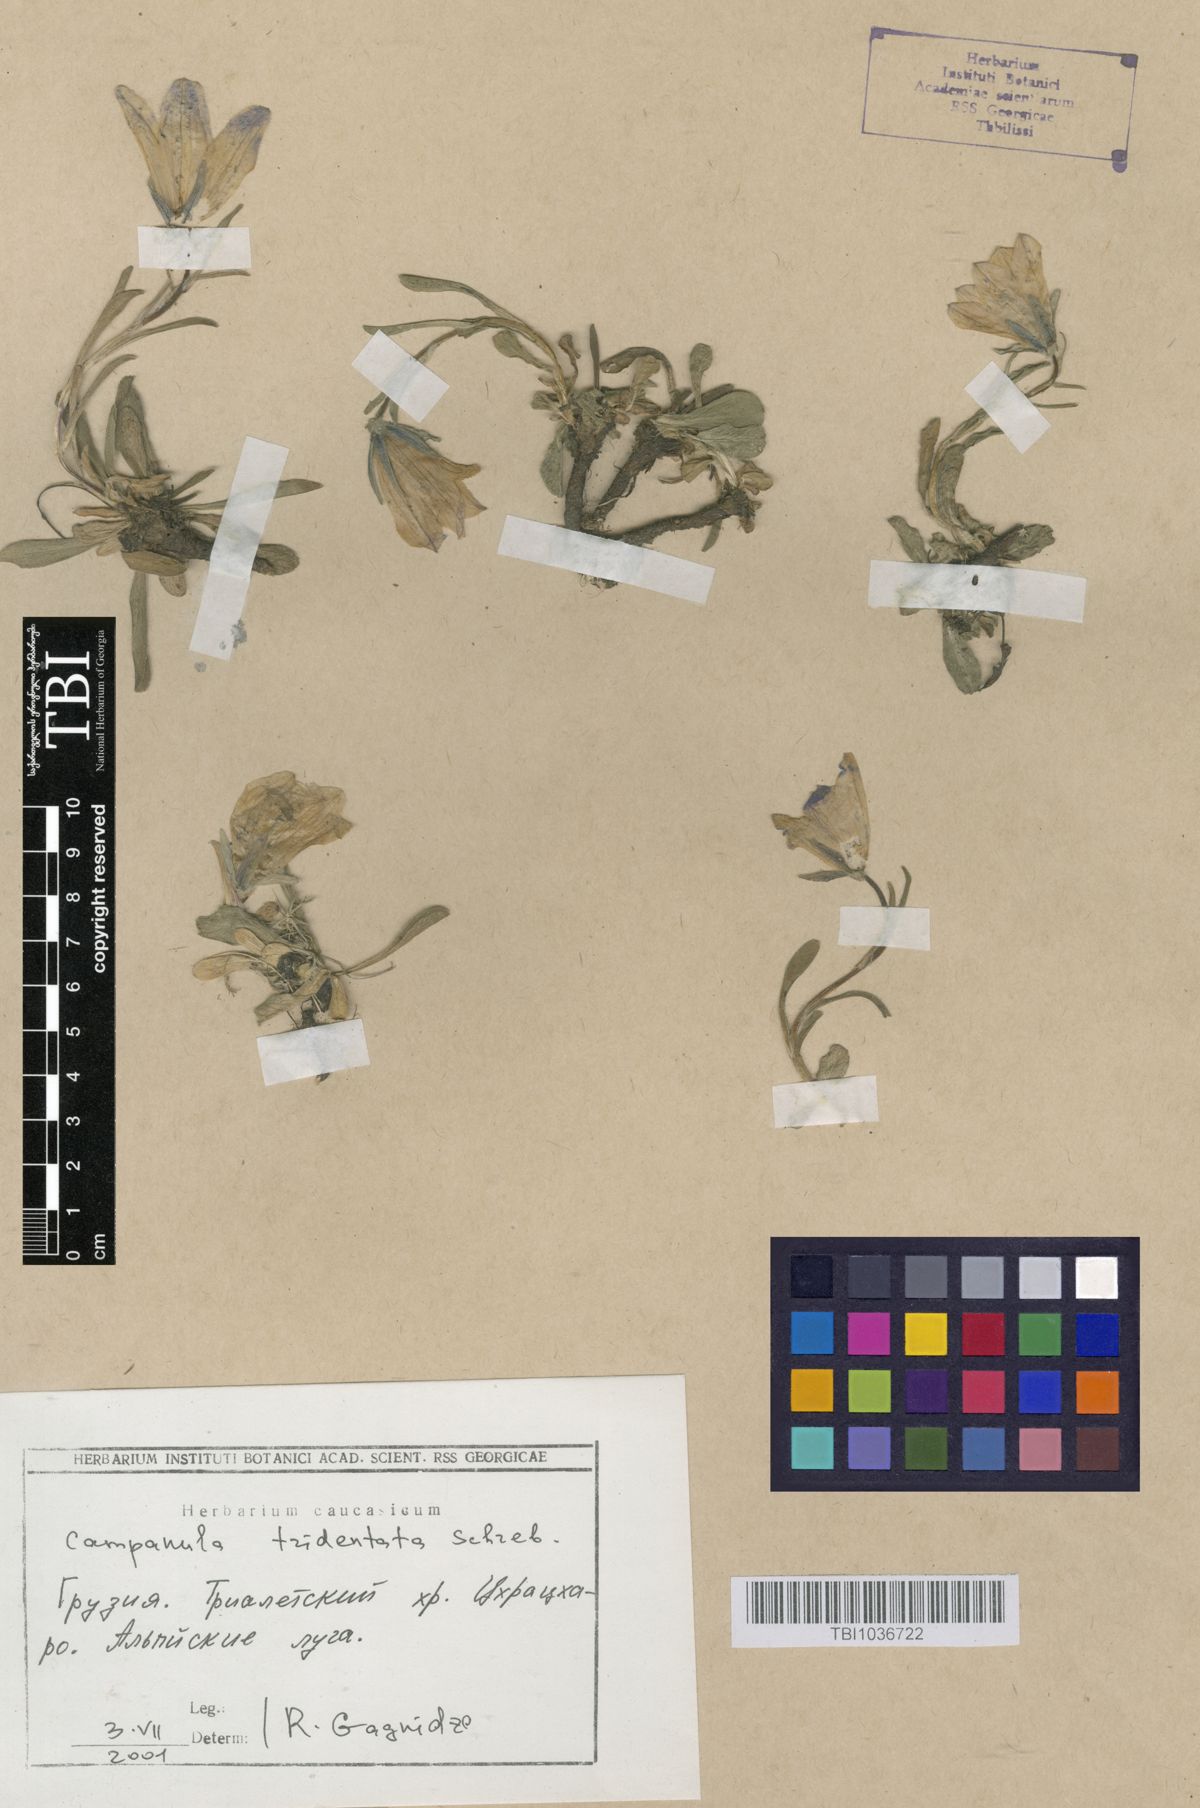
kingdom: Plantae
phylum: Tracheophyta
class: Magnoliopsida
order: Asterales
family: Campanulaceae
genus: Campanula
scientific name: Campanula tridentata
